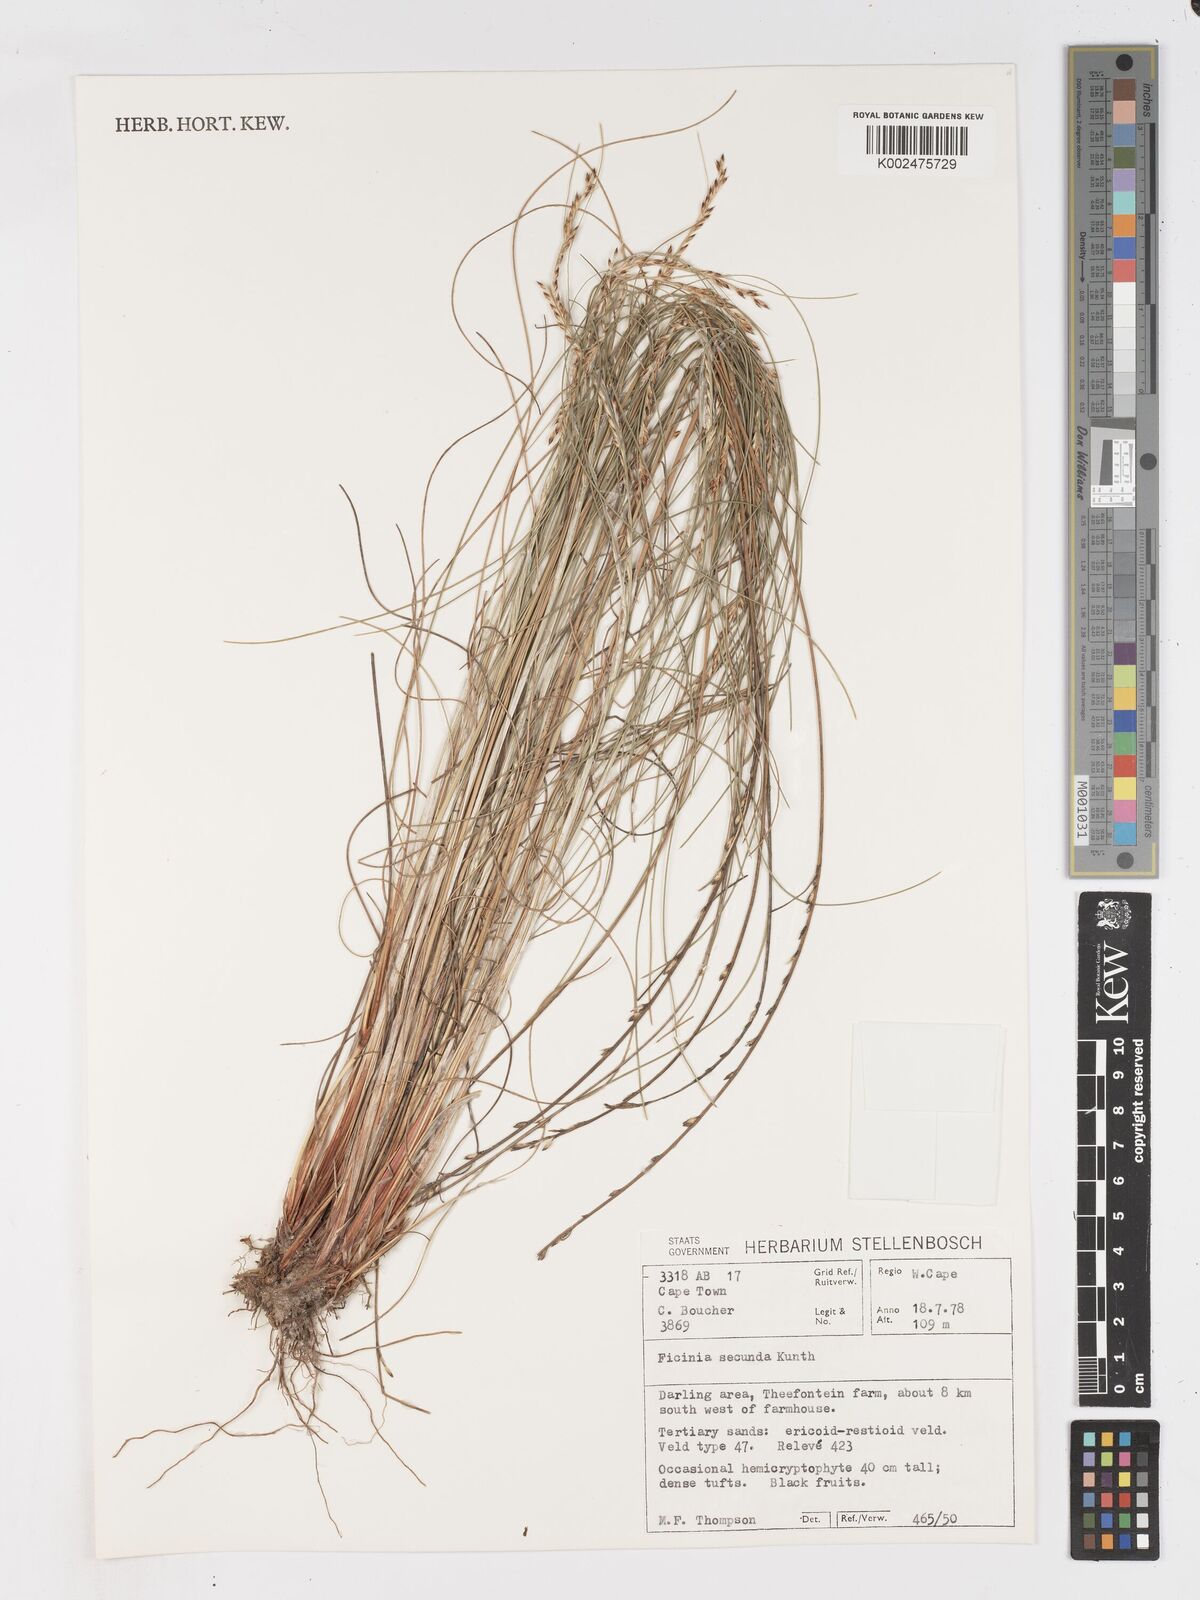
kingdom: Plantae
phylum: Tracheophyta
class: Liliopsida
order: Poales
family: Cyperaceae
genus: Ficinia
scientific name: Ficinia secunda
